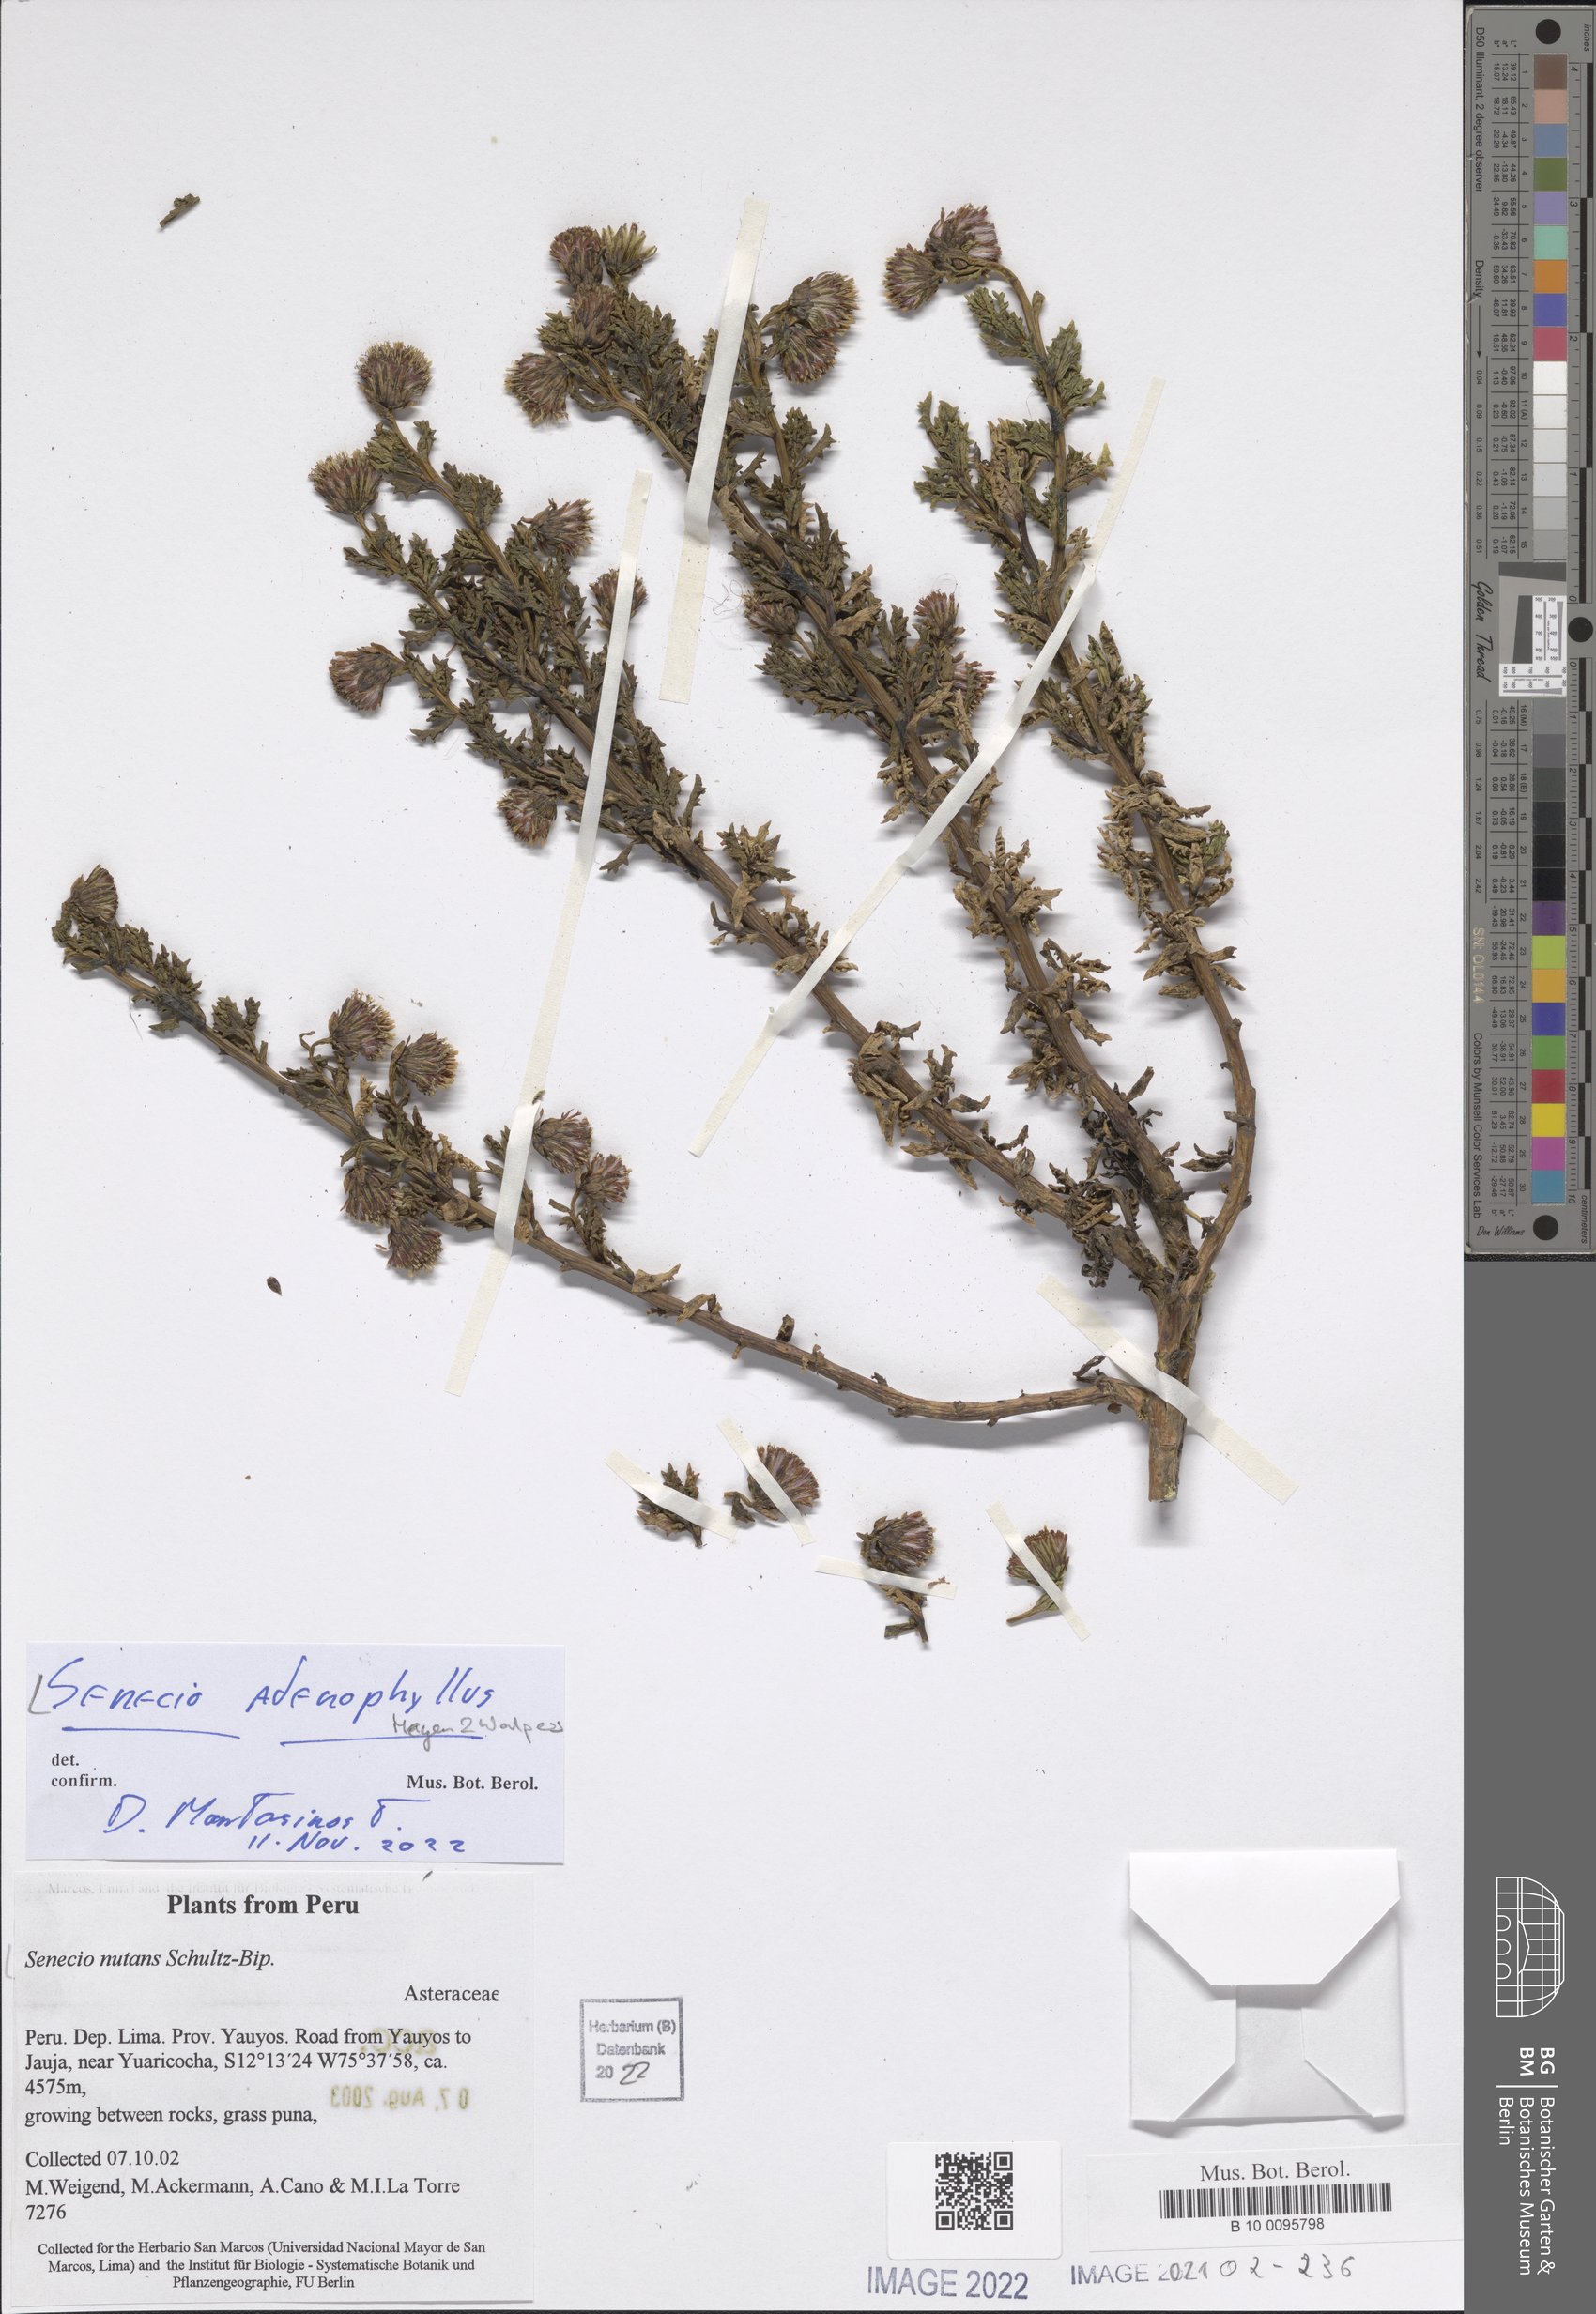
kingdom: Plantae
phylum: Tracheophyta
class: Magnoliopsida
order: Asterales
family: Asteraceae
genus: Senecio
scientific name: Senecio adenophyllus
